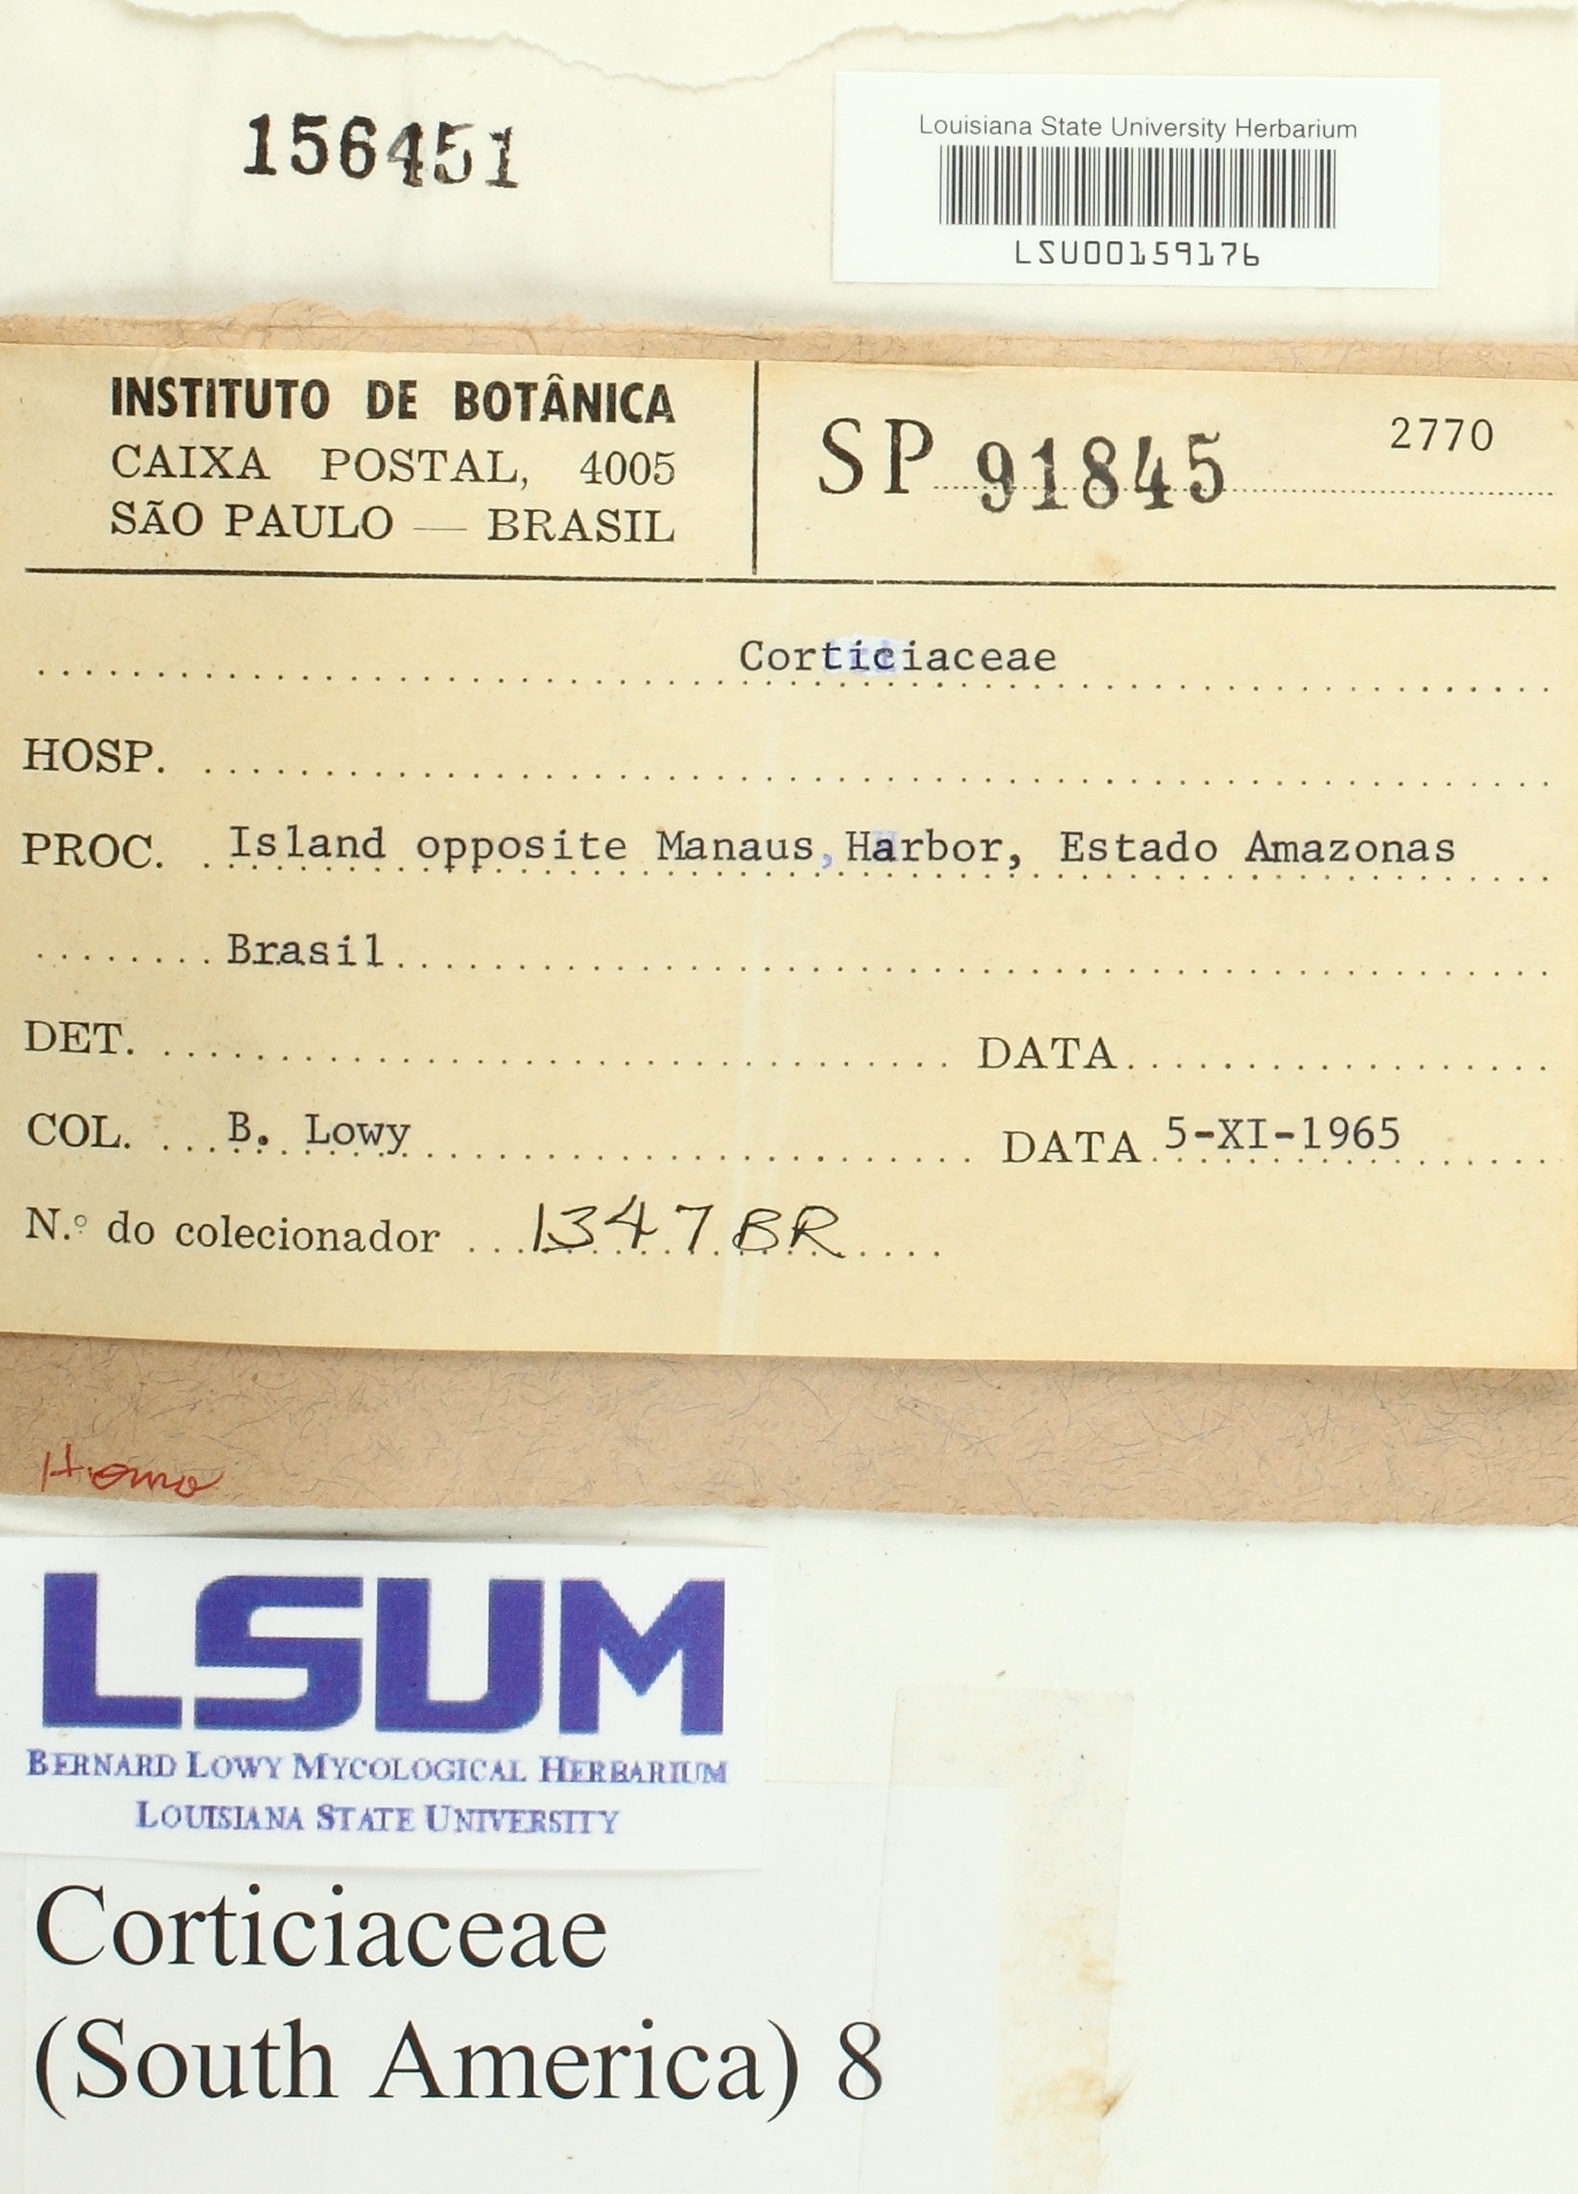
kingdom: Fungi
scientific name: Fungi
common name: Fungi
